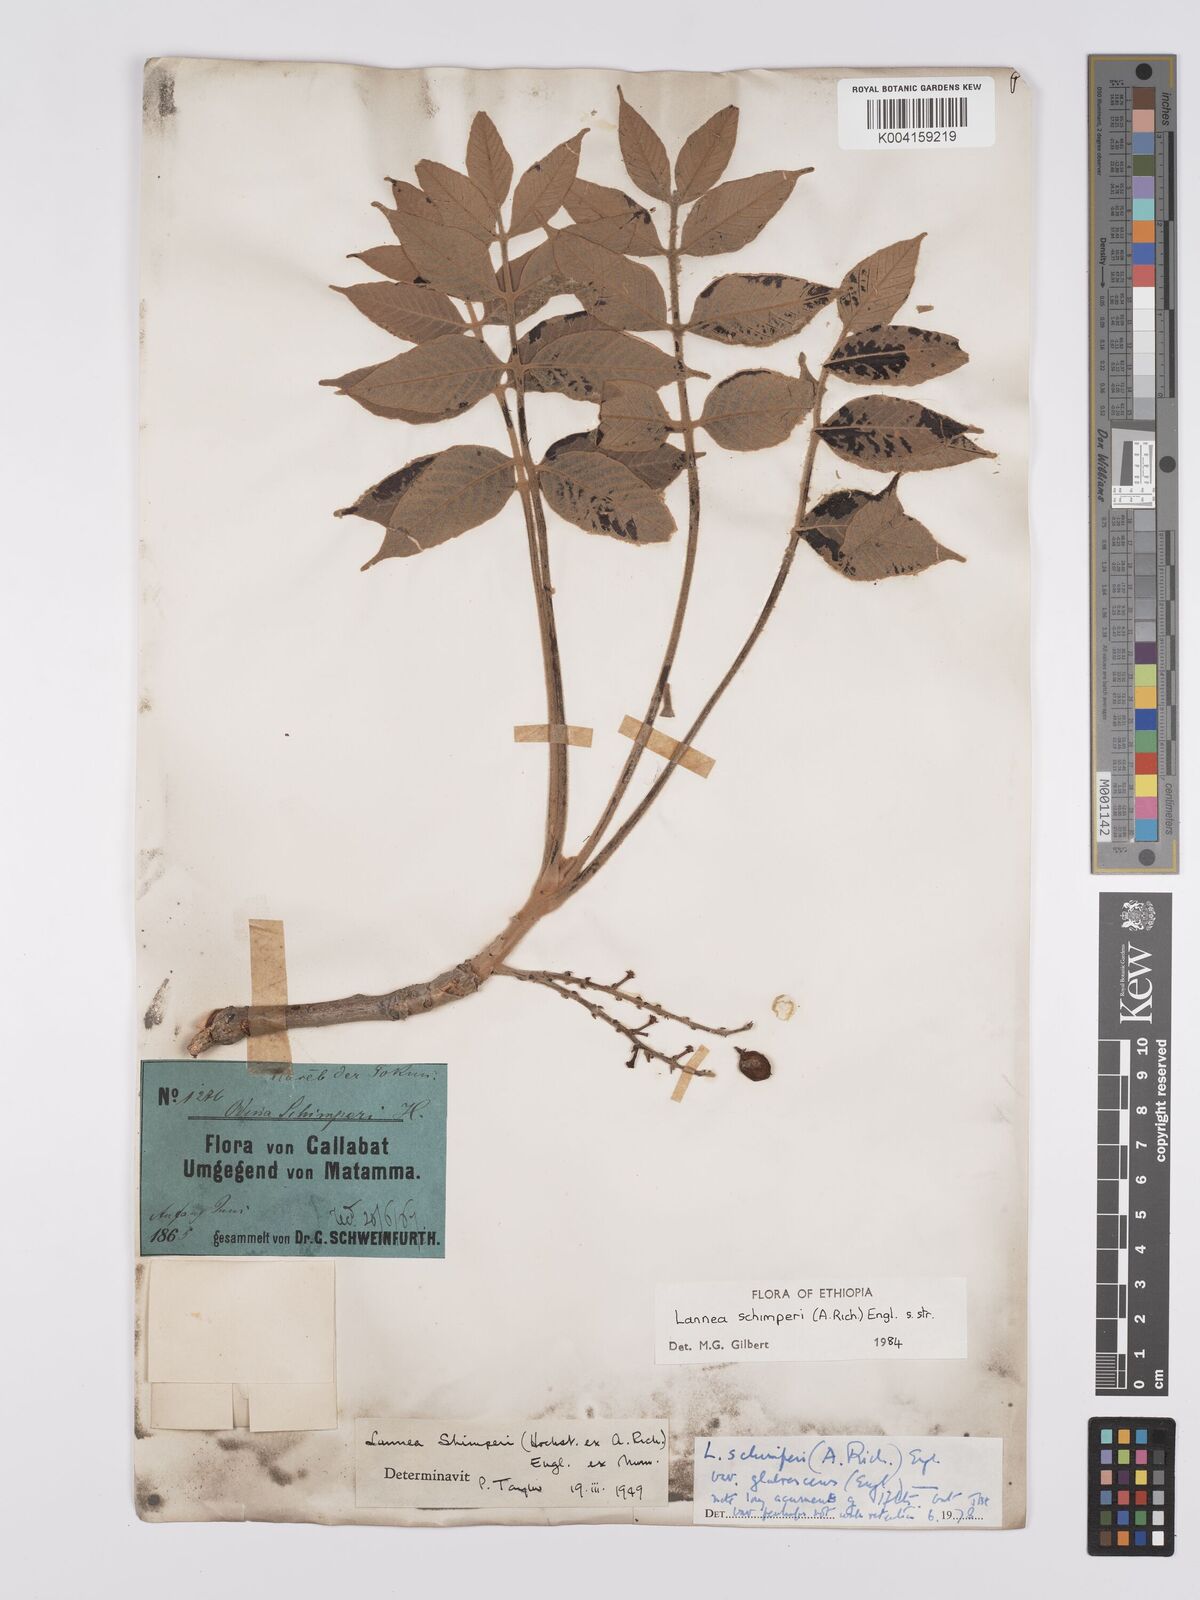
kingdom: Plantae
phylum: Tracheophyta
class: Magnoliopsida
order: Sapindales
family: Anacardiaceae
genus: Lannea
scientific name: Lannea schimperi
